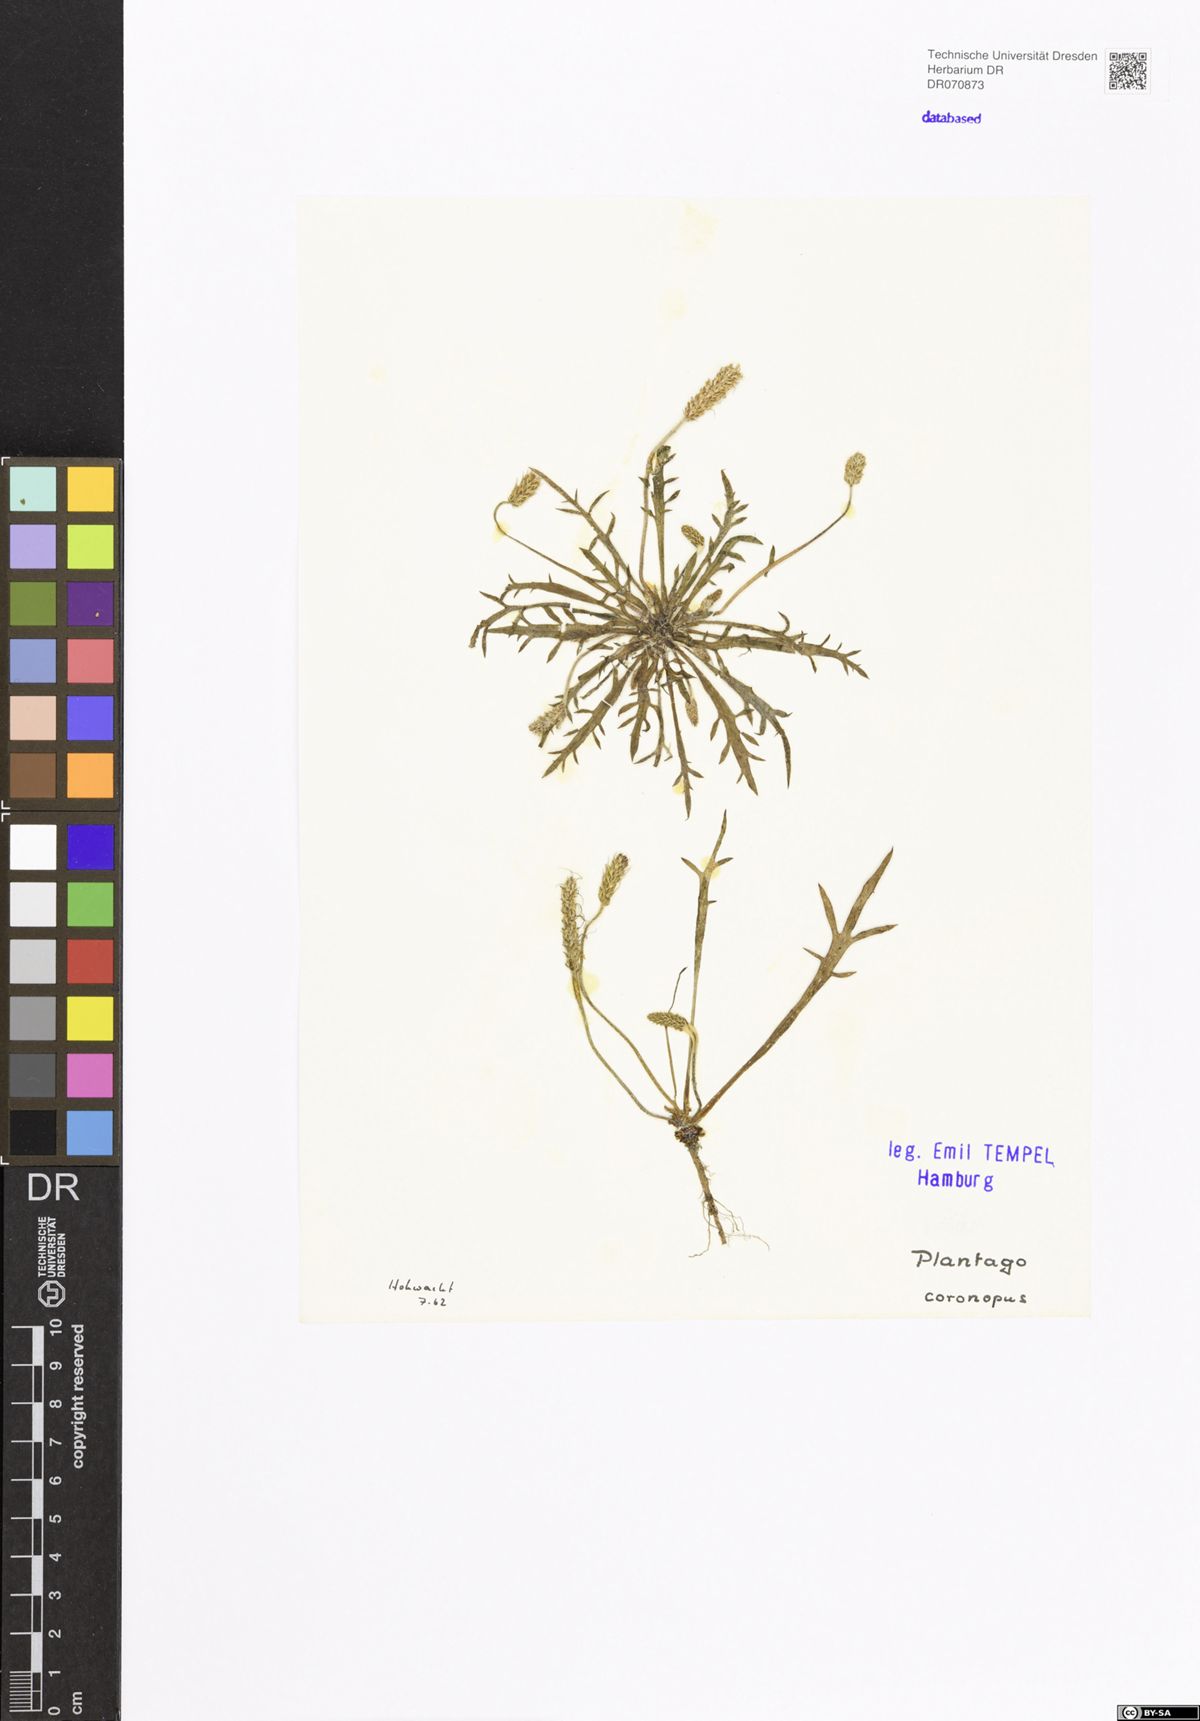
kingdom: Plantae
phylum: Tracheophyta
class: Magnoliopsida
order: Lamiales
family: Plantaginaceae
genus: Plantago
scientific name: Plantago coronopus
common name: Buck's-horn plantain
